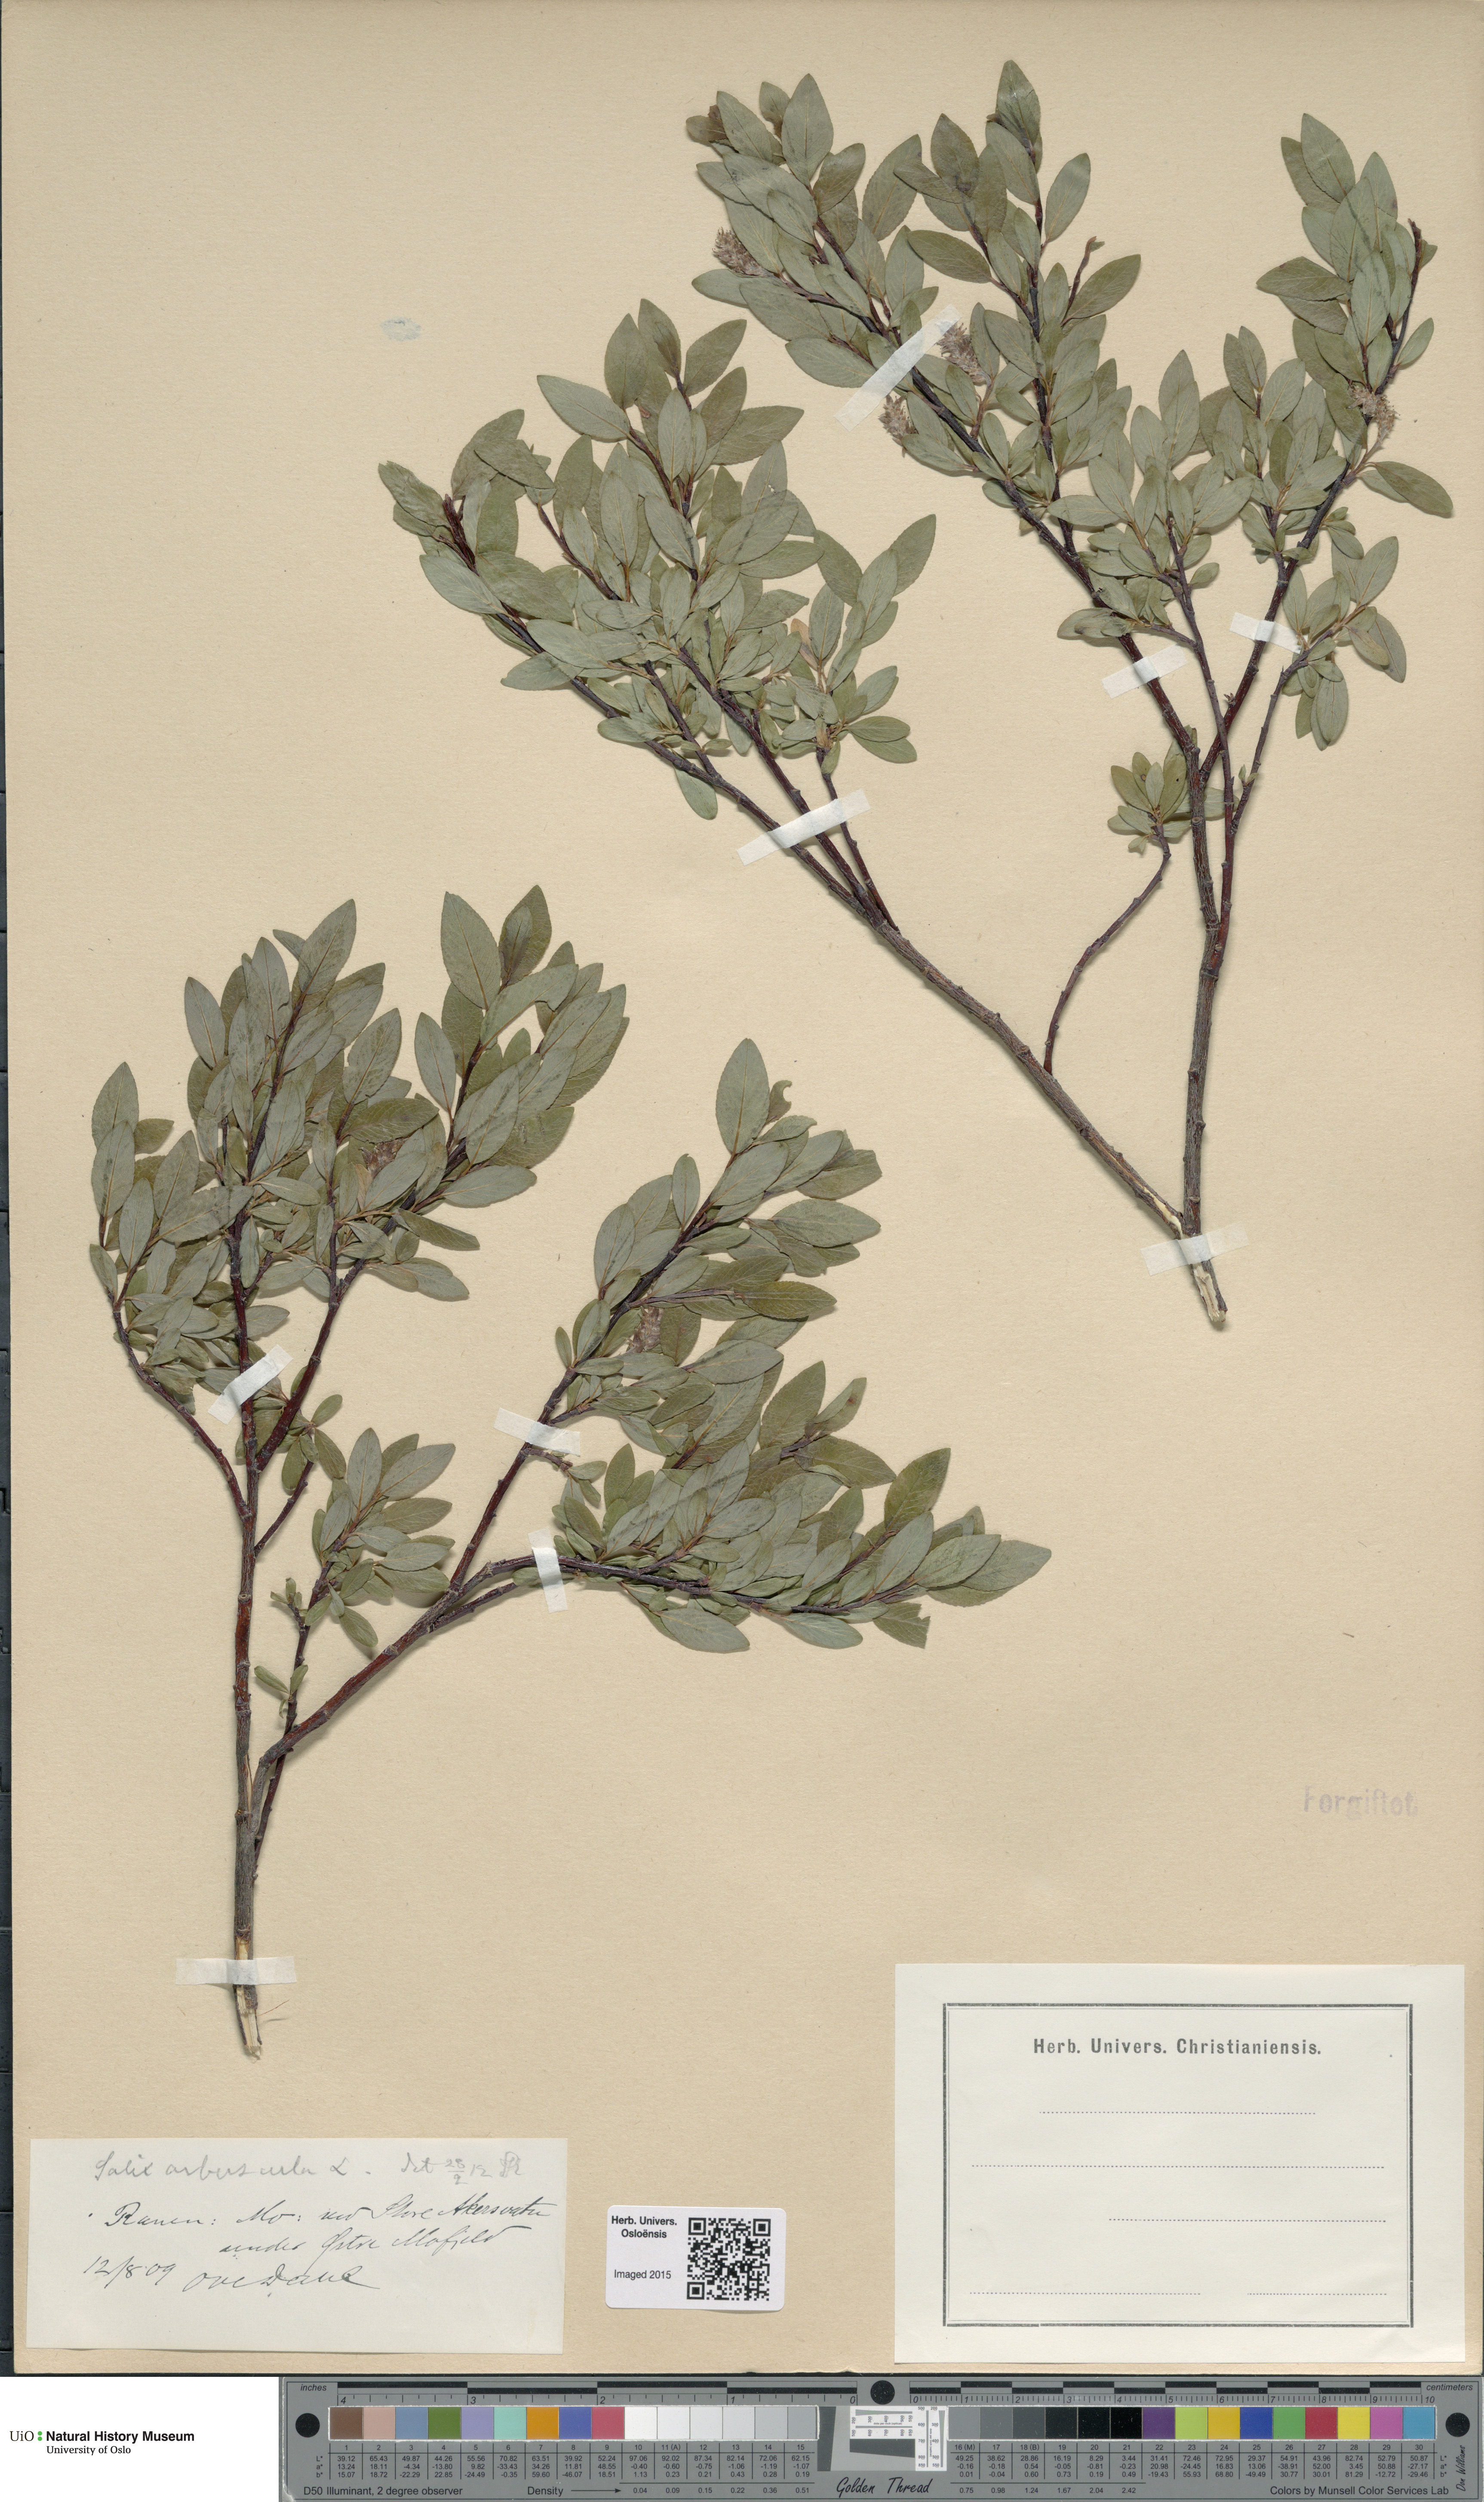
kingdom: Plantae
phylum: Tracheophyta
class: Magnoliopsida
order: Malpighiales
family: Salicaceae
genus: Salix
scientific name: Salix arbuscula
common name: Mountain willow
